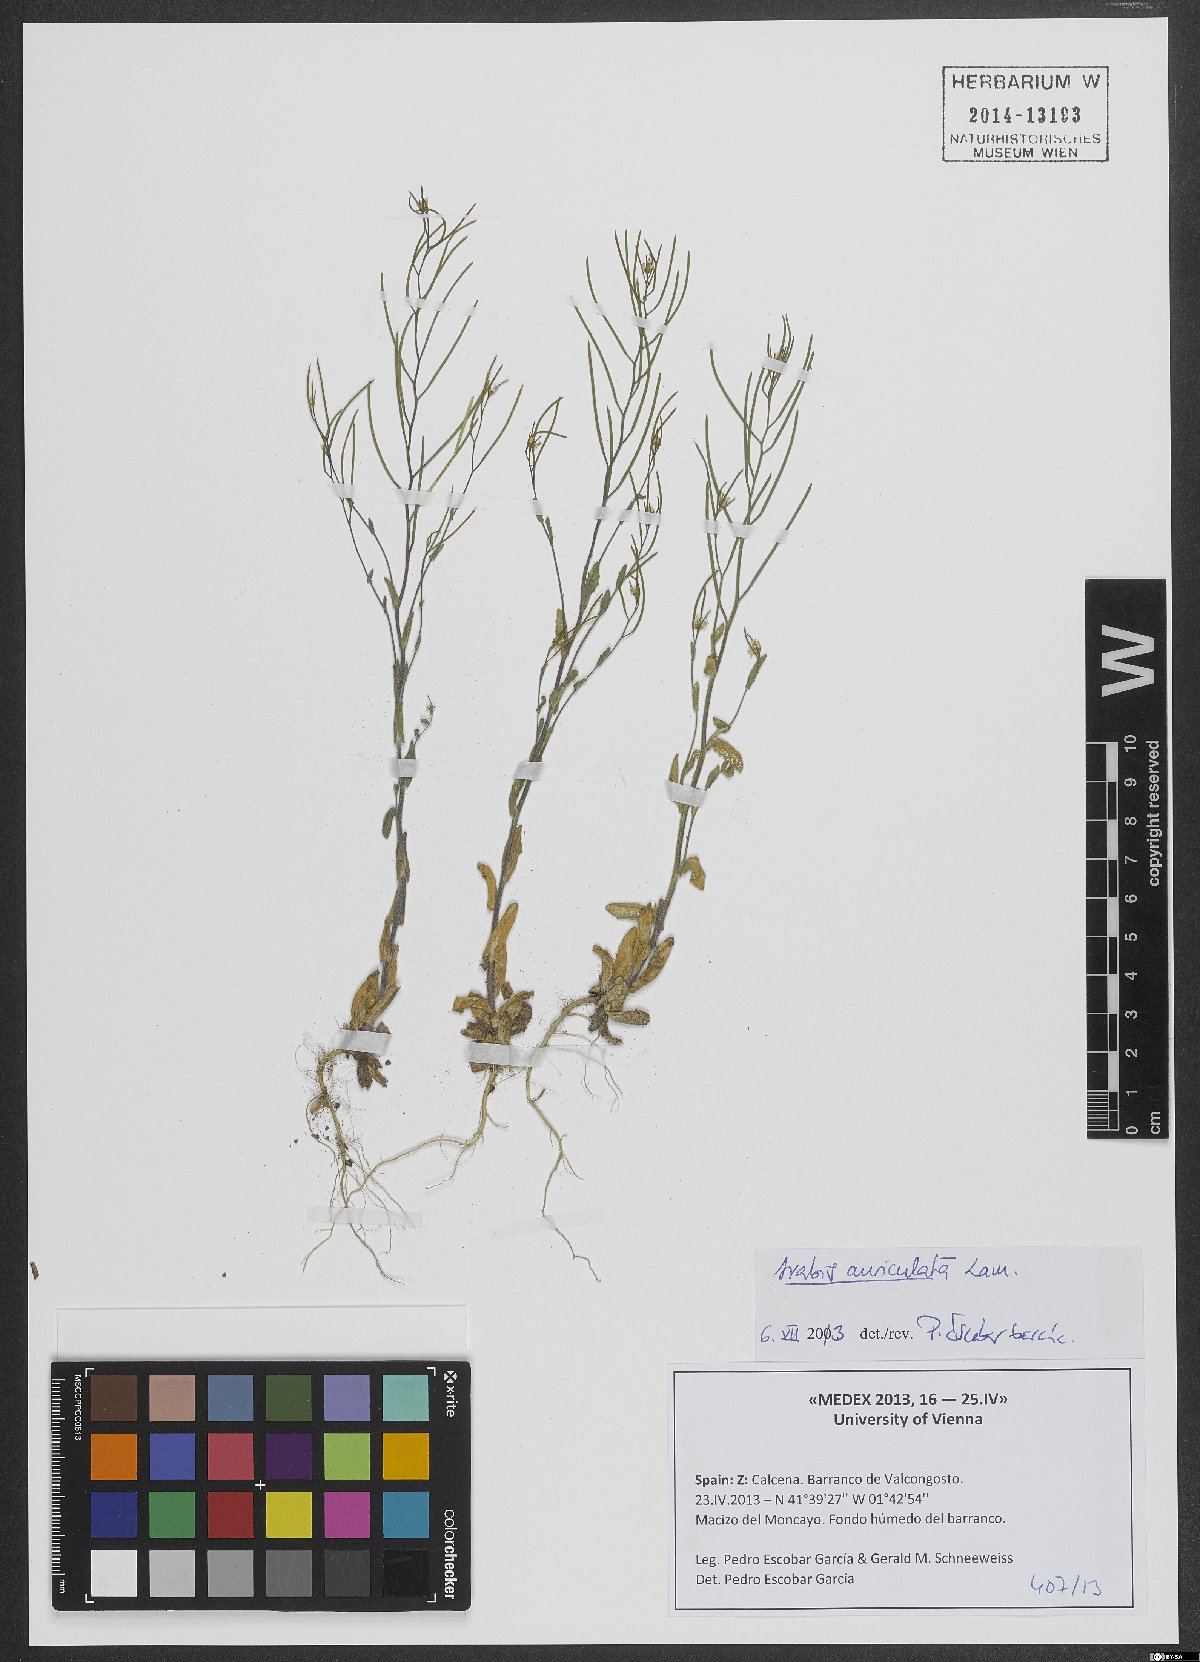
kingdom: Plantae
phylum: Tracheophyta
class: Magnoliopsida
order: Brassicales
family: Brassicaceae
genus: Arabis
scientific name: Arabis auriculata
